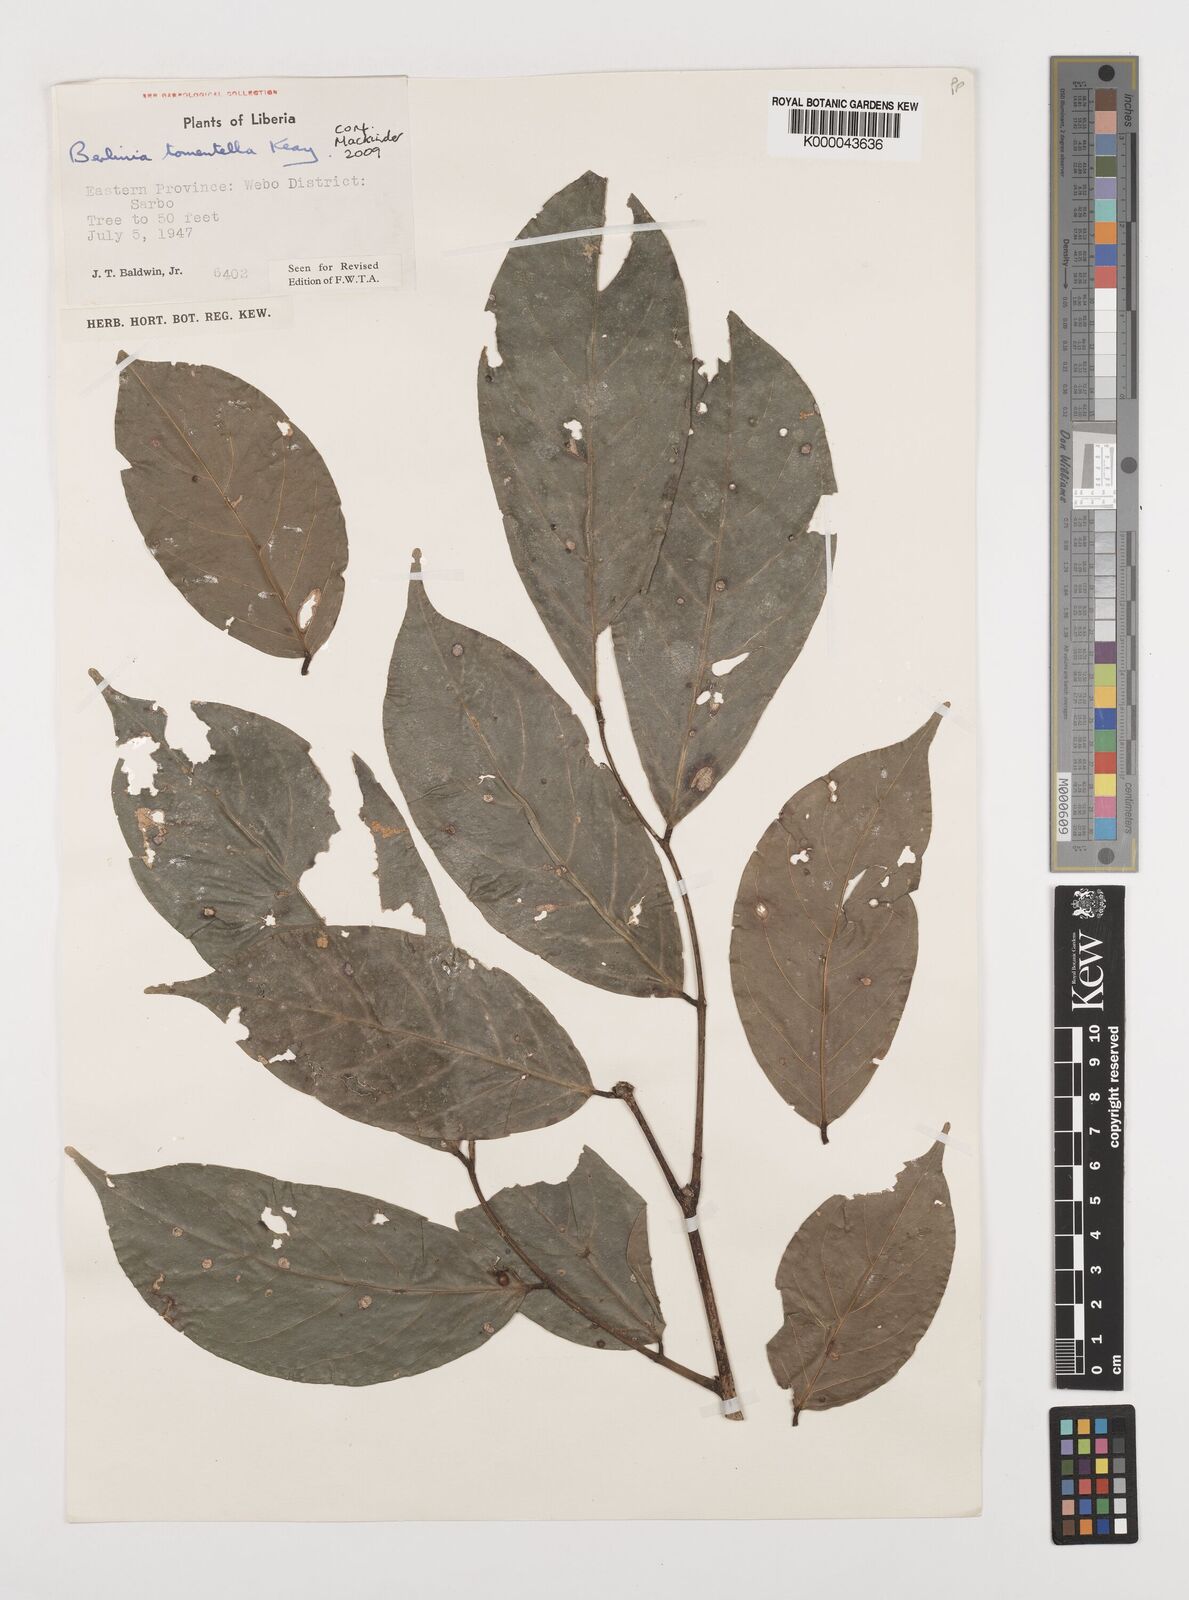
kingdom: Plantae
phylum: Tracheophyta
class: Magnoliopsida
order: Fabales
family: Fabaceae
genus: Berlinia
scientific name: Berlinia tomentella
